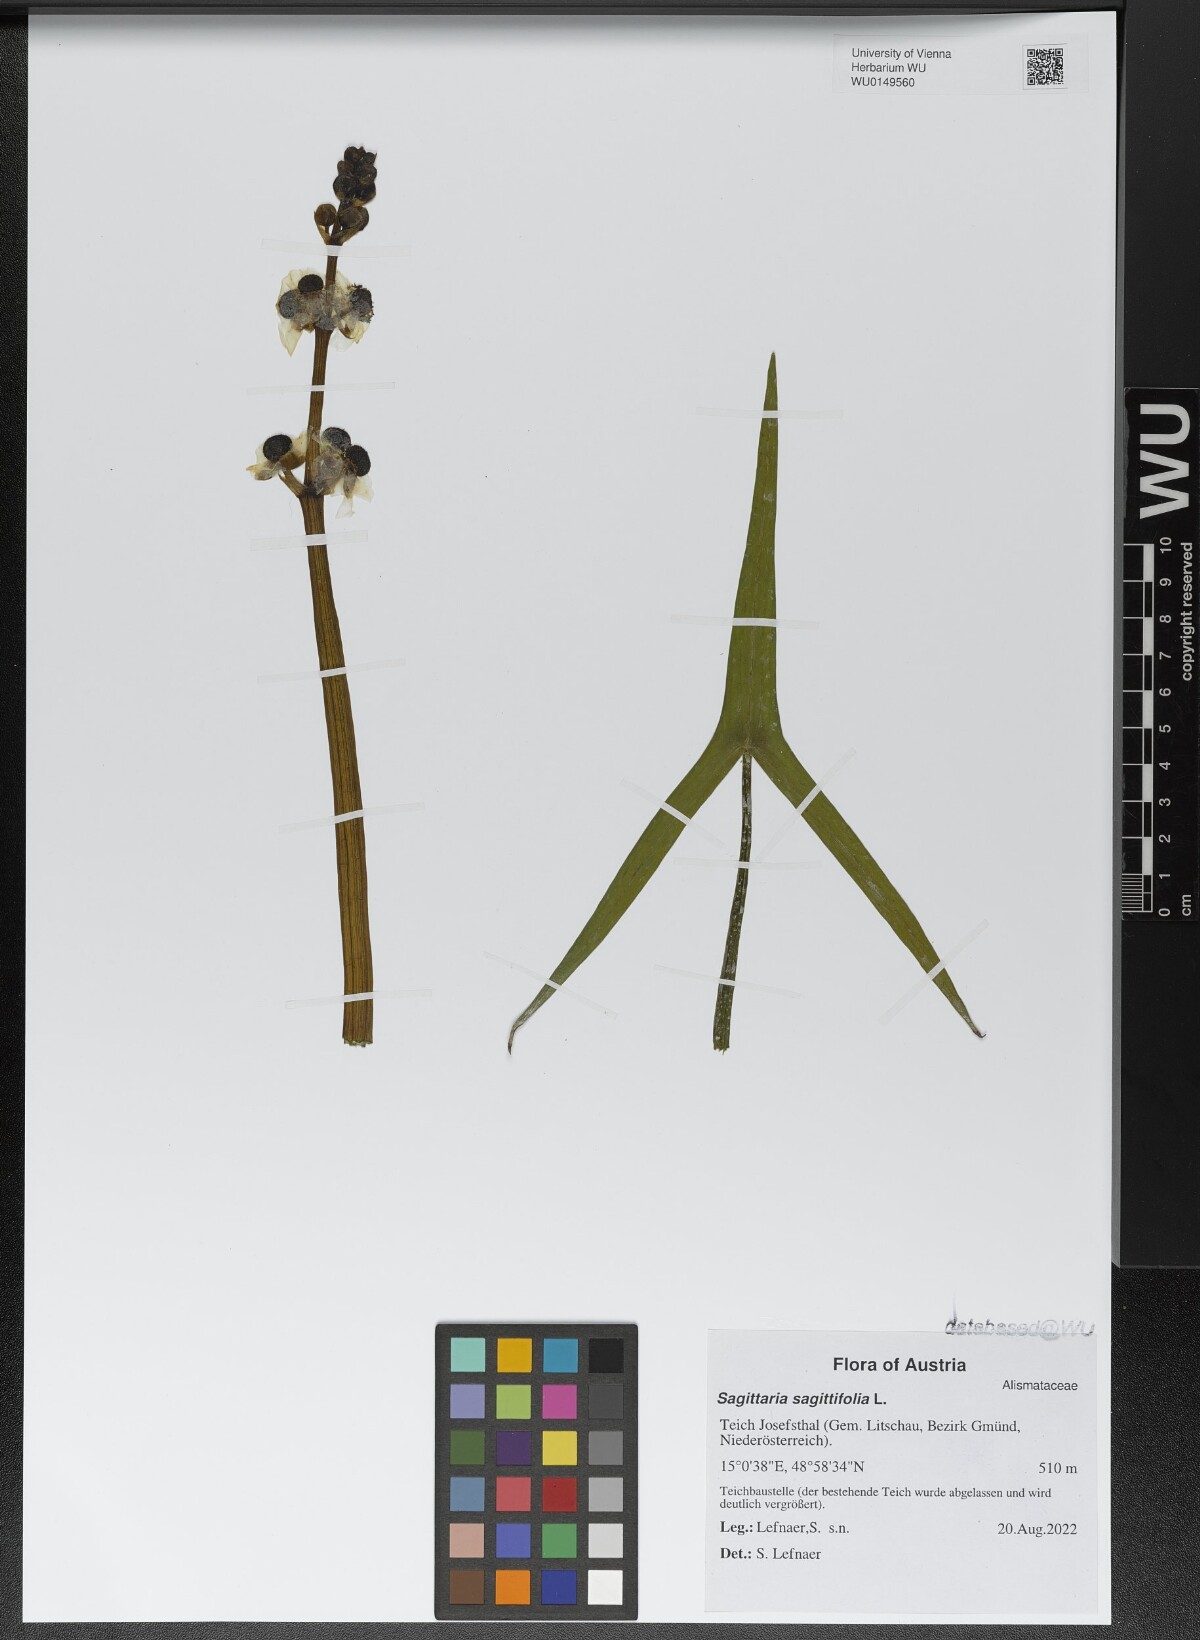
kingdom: Plantae
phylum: Tracheophyta
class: Liliopsida
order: Alismatales
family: Alismataceae
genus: Sagittaria
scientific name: Sagittaria sagittifolia
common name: Arrowhead
